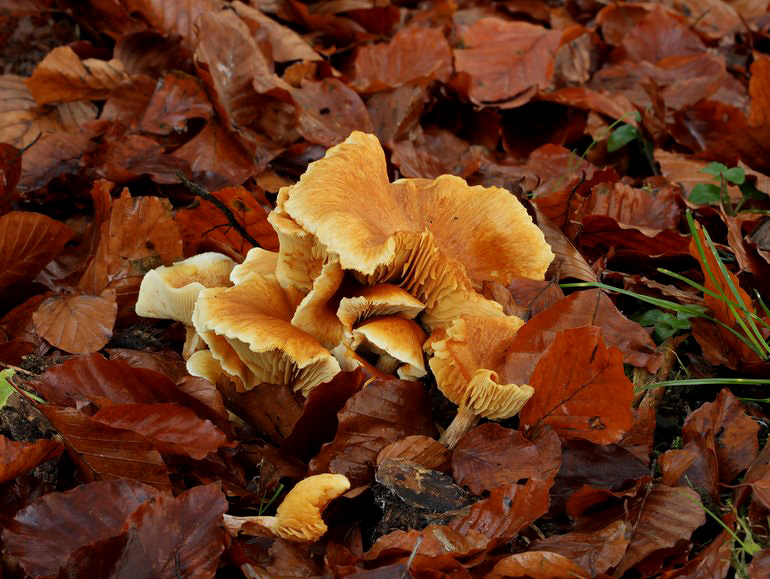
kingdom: Fungi
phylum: Basidiomycota
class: Agaricomycetes
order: Agaricales
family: Hymenogastraceae
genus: Gymnopilus
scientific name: Gymnopilus penetrans
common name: plettet flammehat
